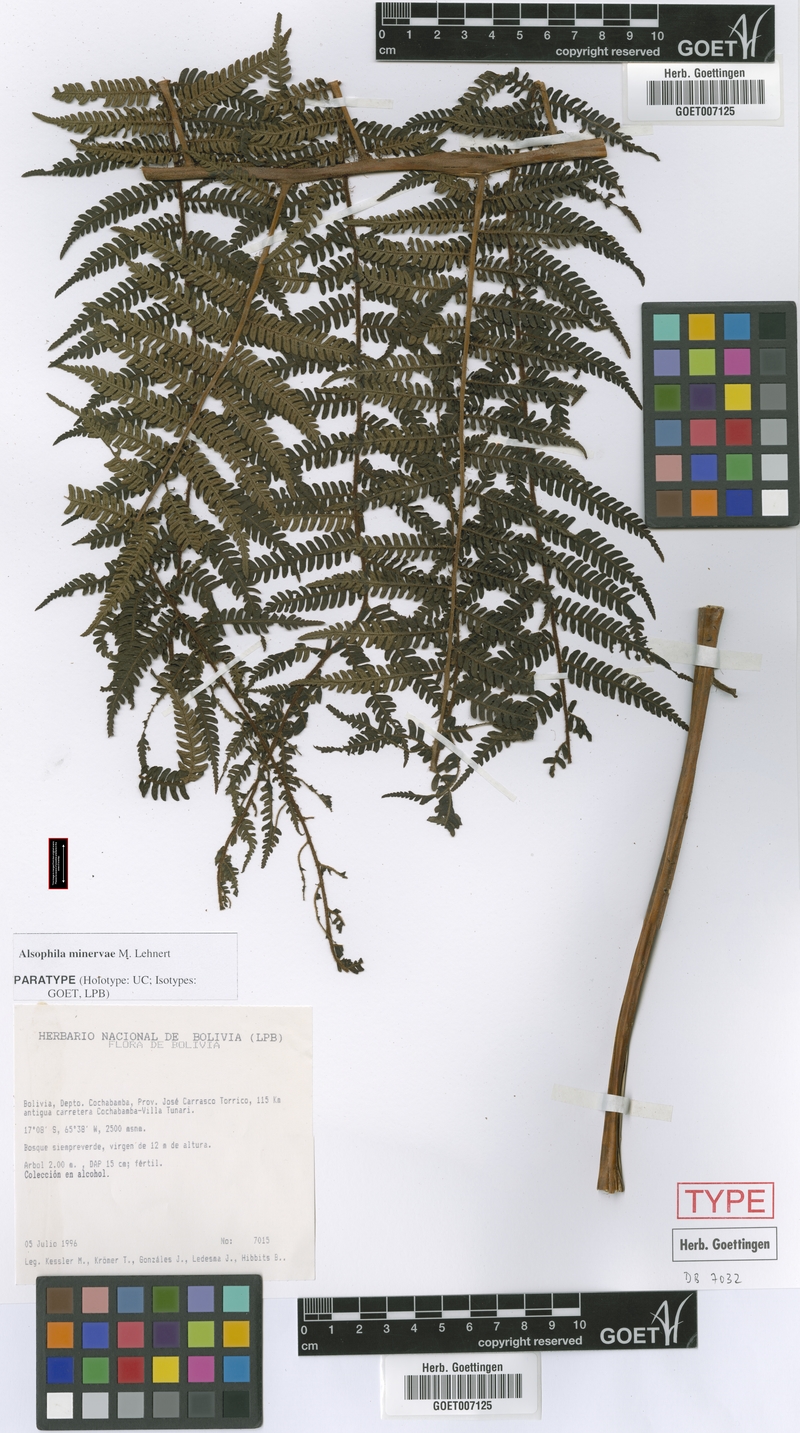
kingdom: Plantae
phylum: Tracheophyta
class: Polypodiopsida
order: Cyatheales
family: Cyatheaceae
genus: Alsophila
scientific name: Alsophila minervae
